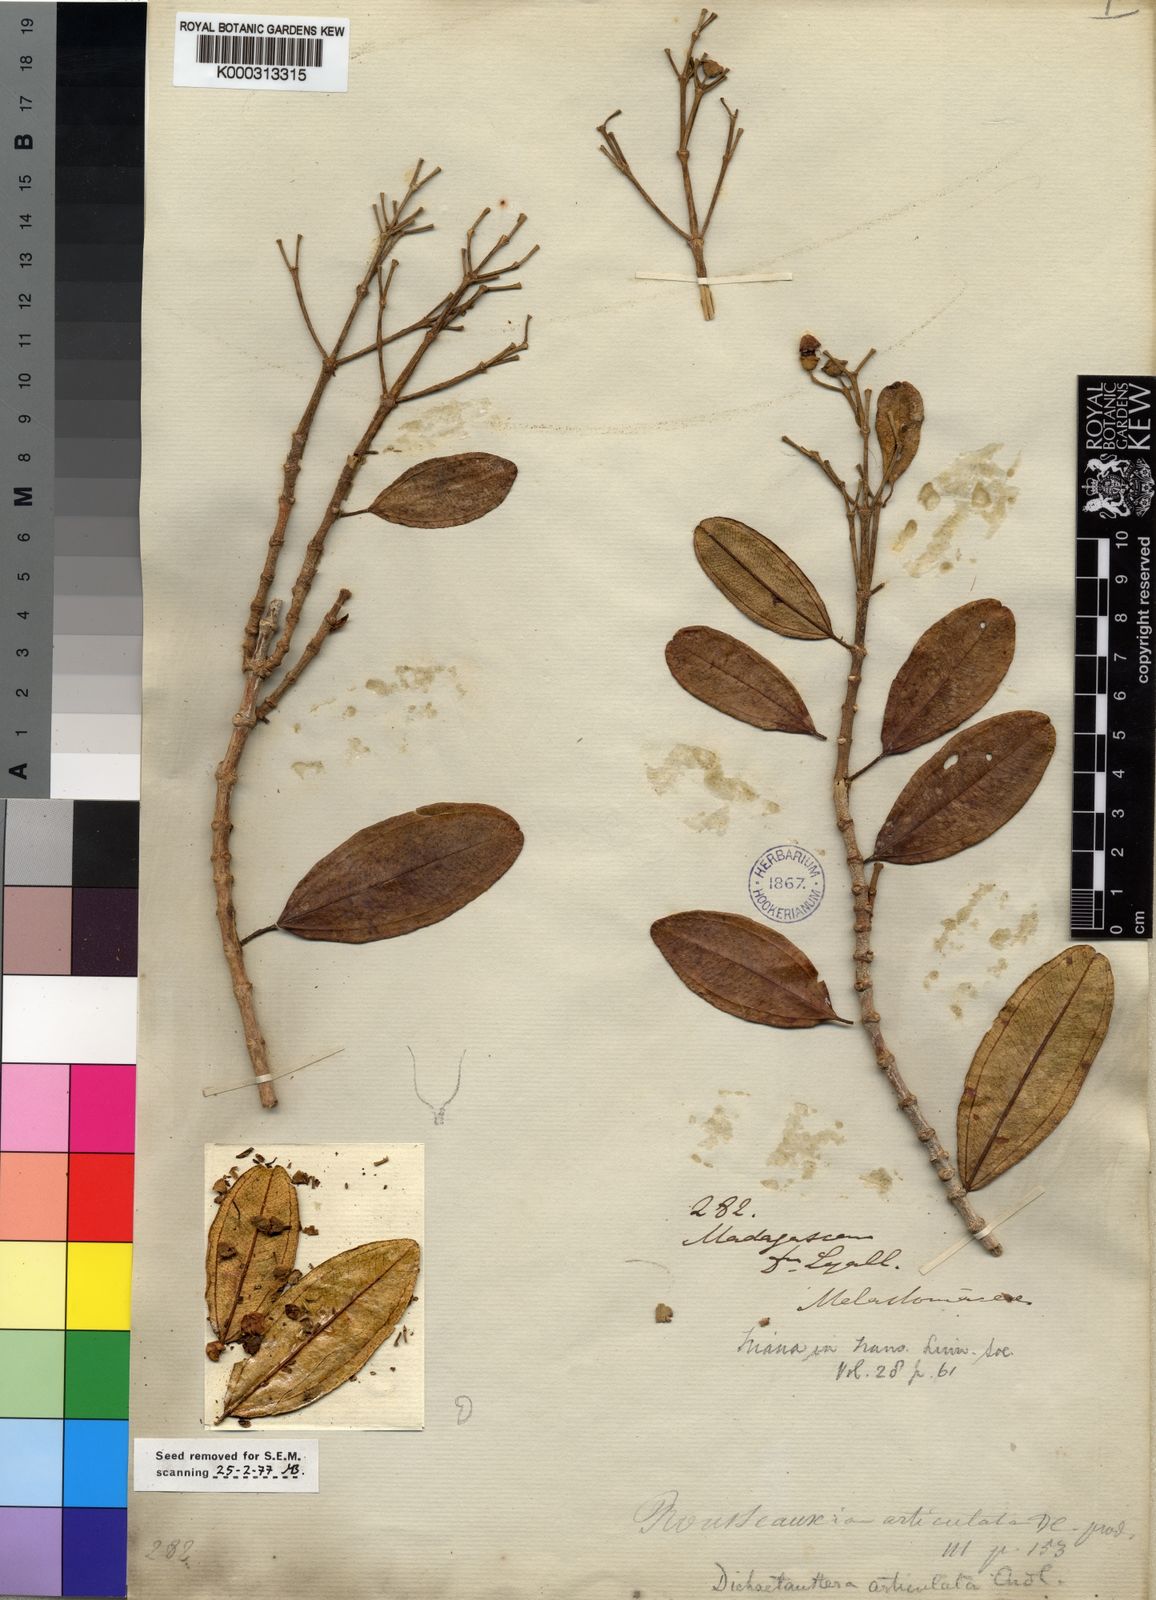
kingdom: Plantae
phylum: Tracheophyta
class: Magnoliopsida
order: Myrtales
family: Melastomataceae
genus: Dichaetanthera
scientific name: Dichaetanthera articulata
